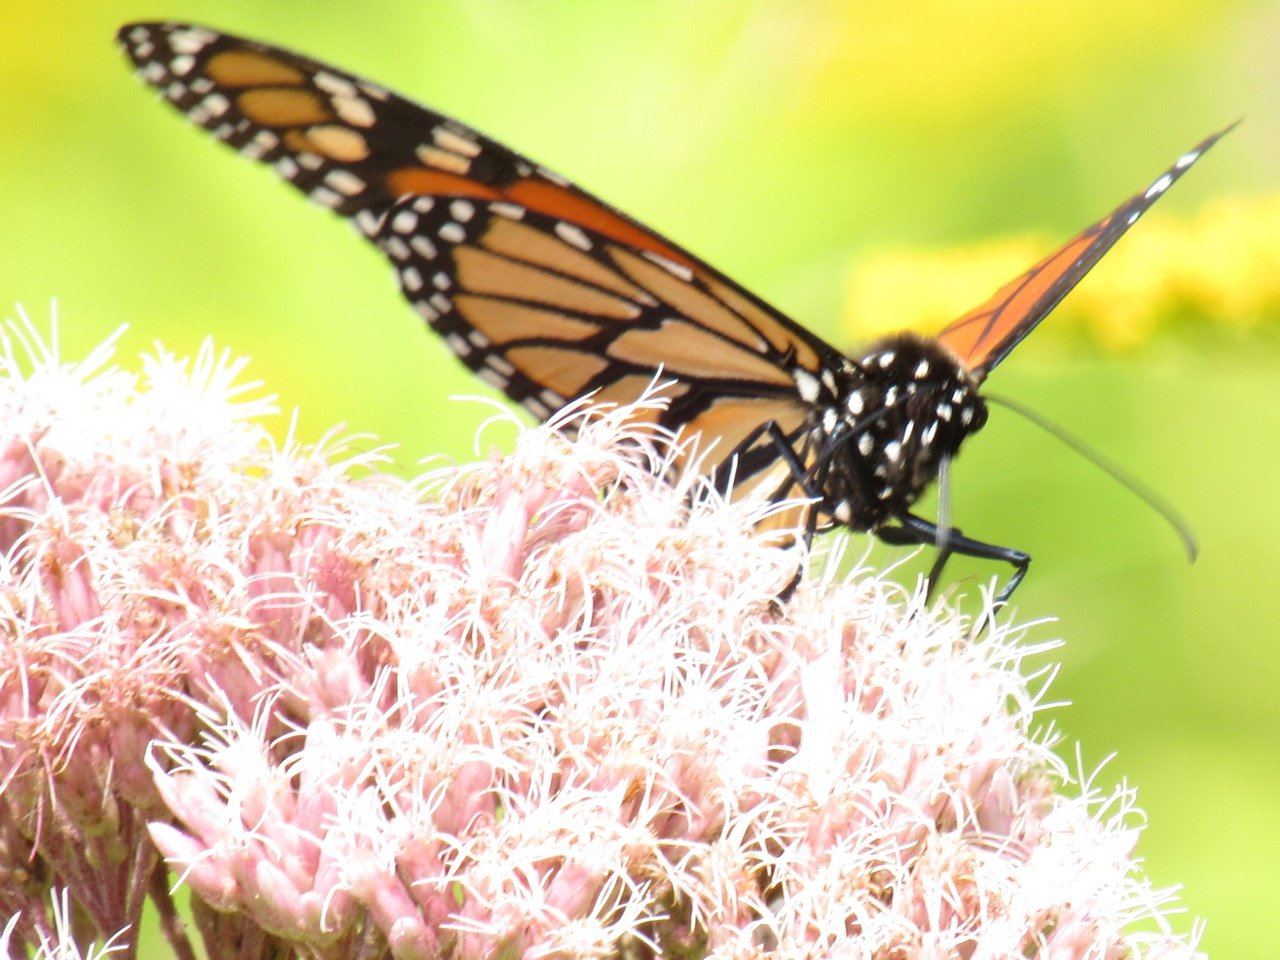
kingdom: Animalia
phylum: Arthropoda
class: Insecta
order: Lepidoptera
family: Nymphalidae
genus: Danaus
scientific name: Danaus plexippus
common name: Monarch
